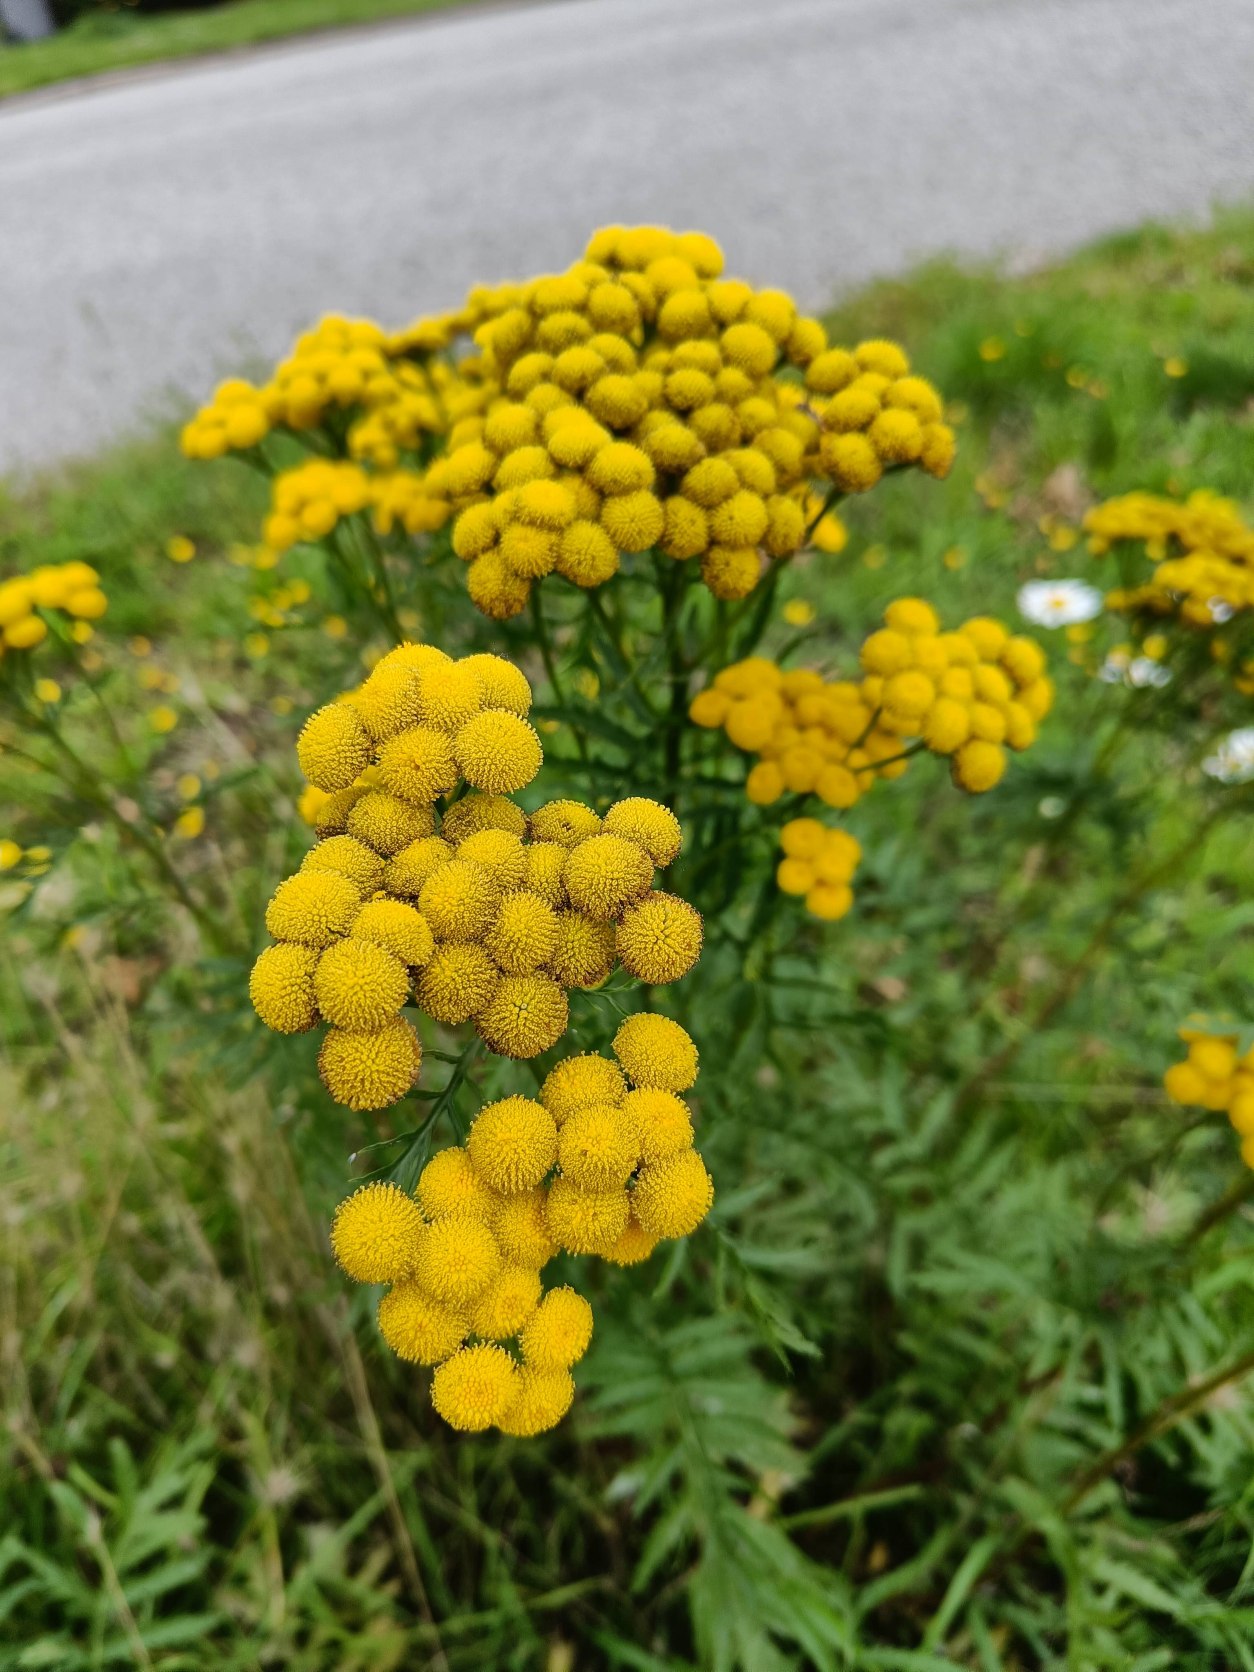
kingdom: Plantae
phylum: Tracheophyta
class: Magnoliopsida
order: Asterales
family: Asteraceae
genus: Tanacetum
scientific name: Tanacetum vulgare
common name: Rejnfan
